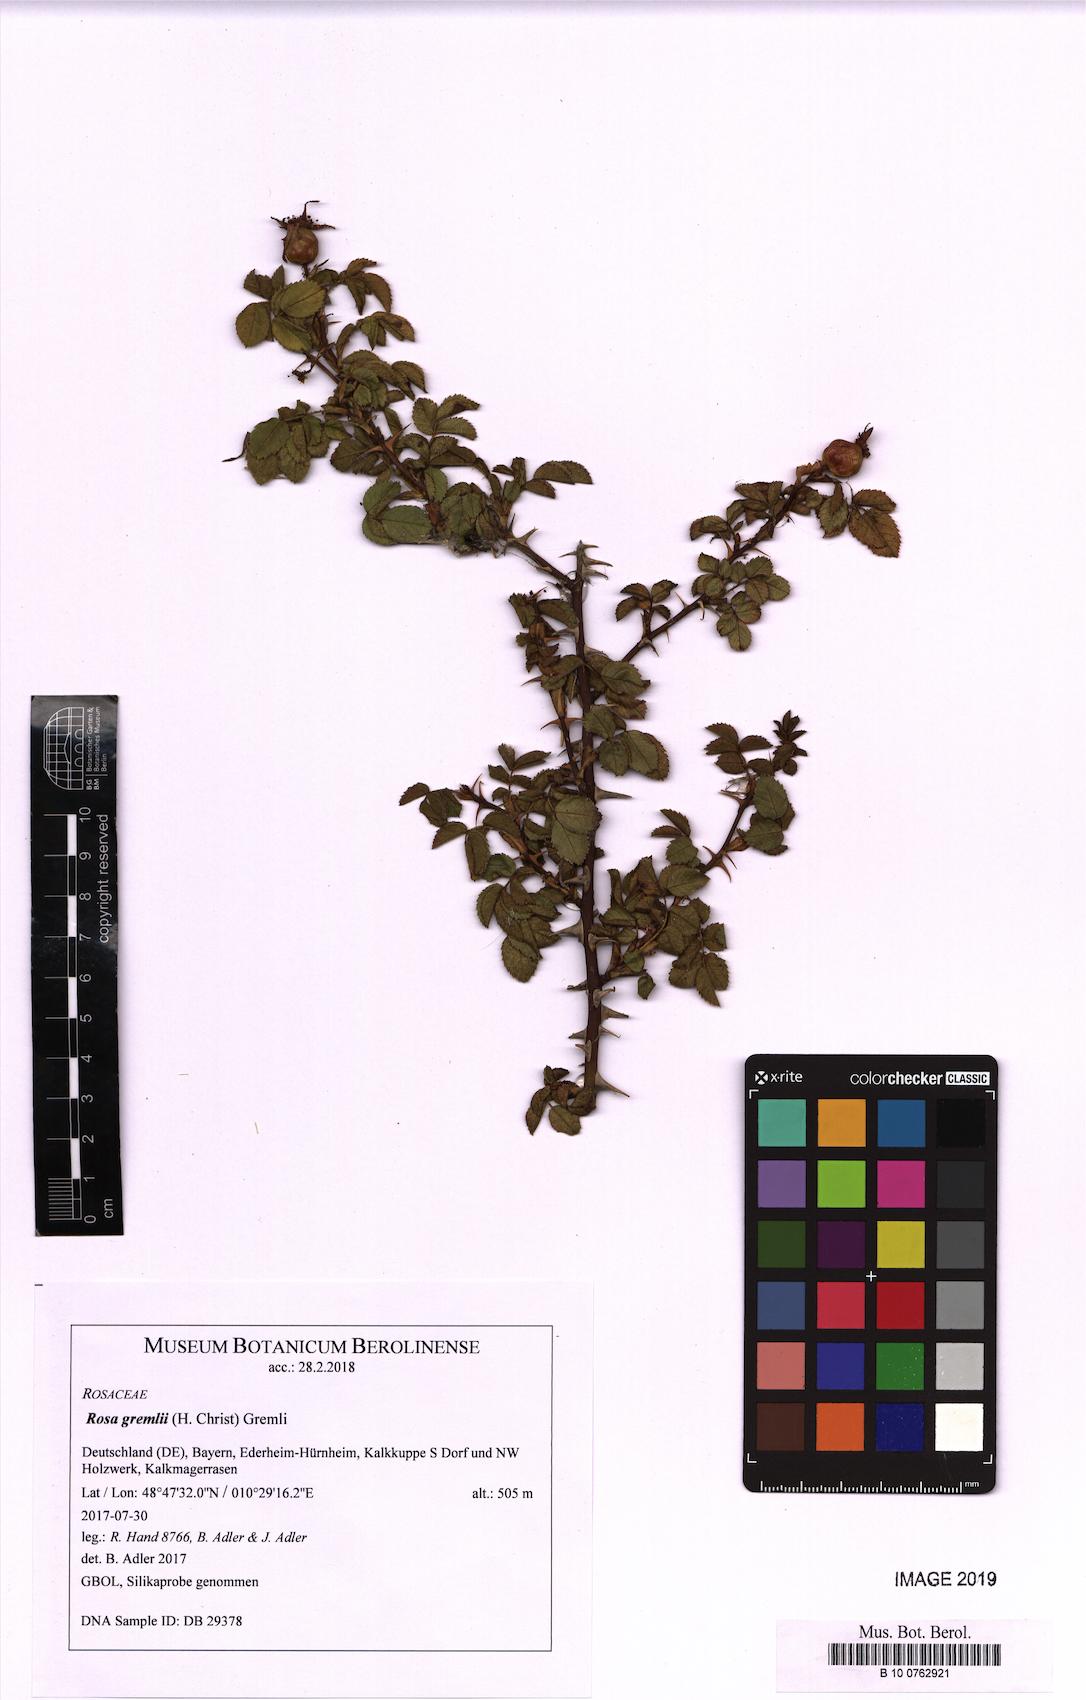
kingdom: Plantae
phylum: Tracheophyta
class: Magnoliopsida
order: Rosales
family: Rosaceae
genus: Rosa
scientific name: Rosa rubiginosa
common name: Sweet-briar
